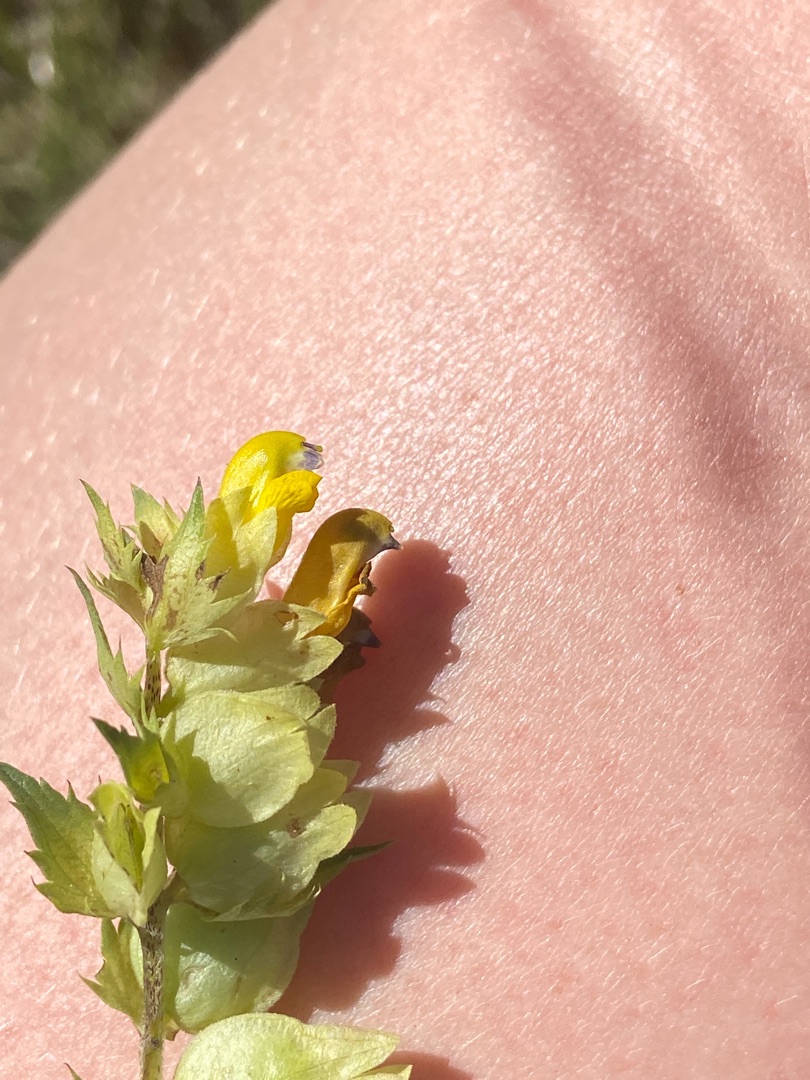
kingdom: Plantae
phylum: Tracheophyta
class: Magnoliopsida
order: Lamiales
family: Orobanchaceae
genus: Rhinanthus
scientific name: Rhinanthus
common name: Stor skjaller
